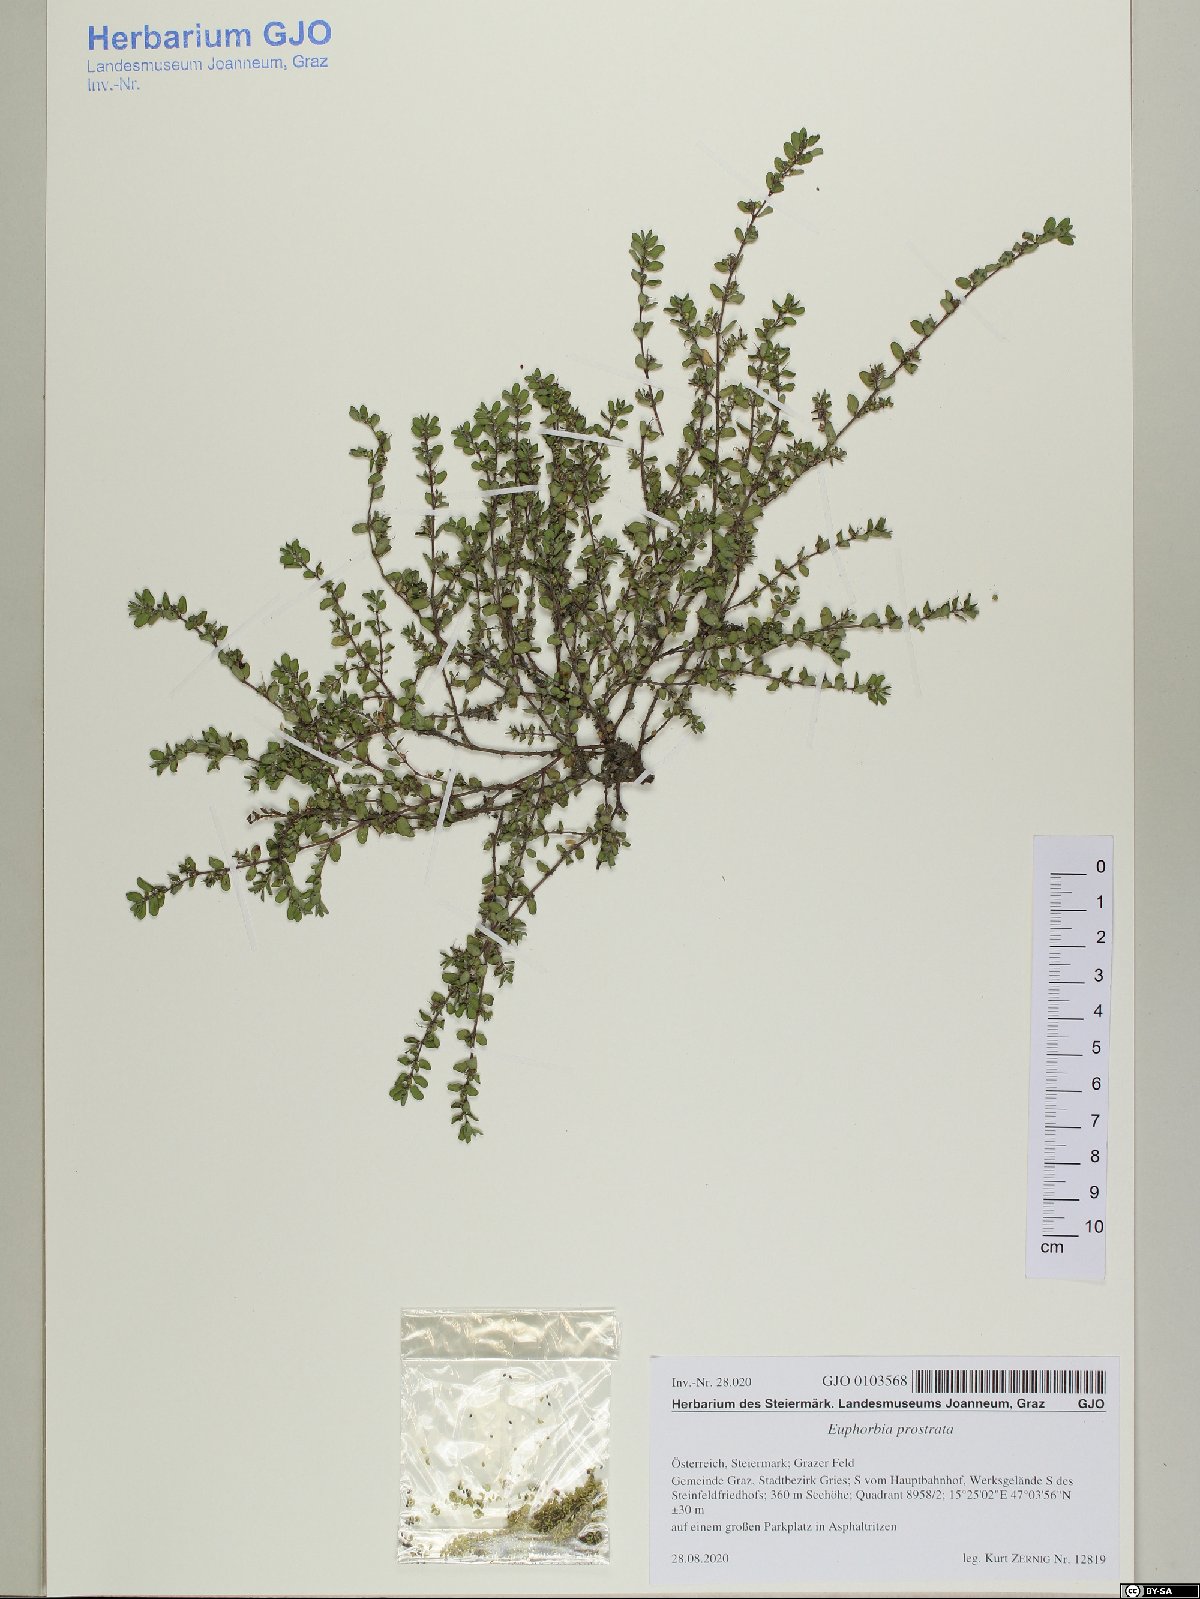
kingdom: Plantae
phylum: Tracheophyta
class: Magnoliopsida
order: Malpighiales
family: Euphorbiaceae
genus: Euphorbia
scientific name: Euphorbia prostrata
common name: Prostrate sandmat
